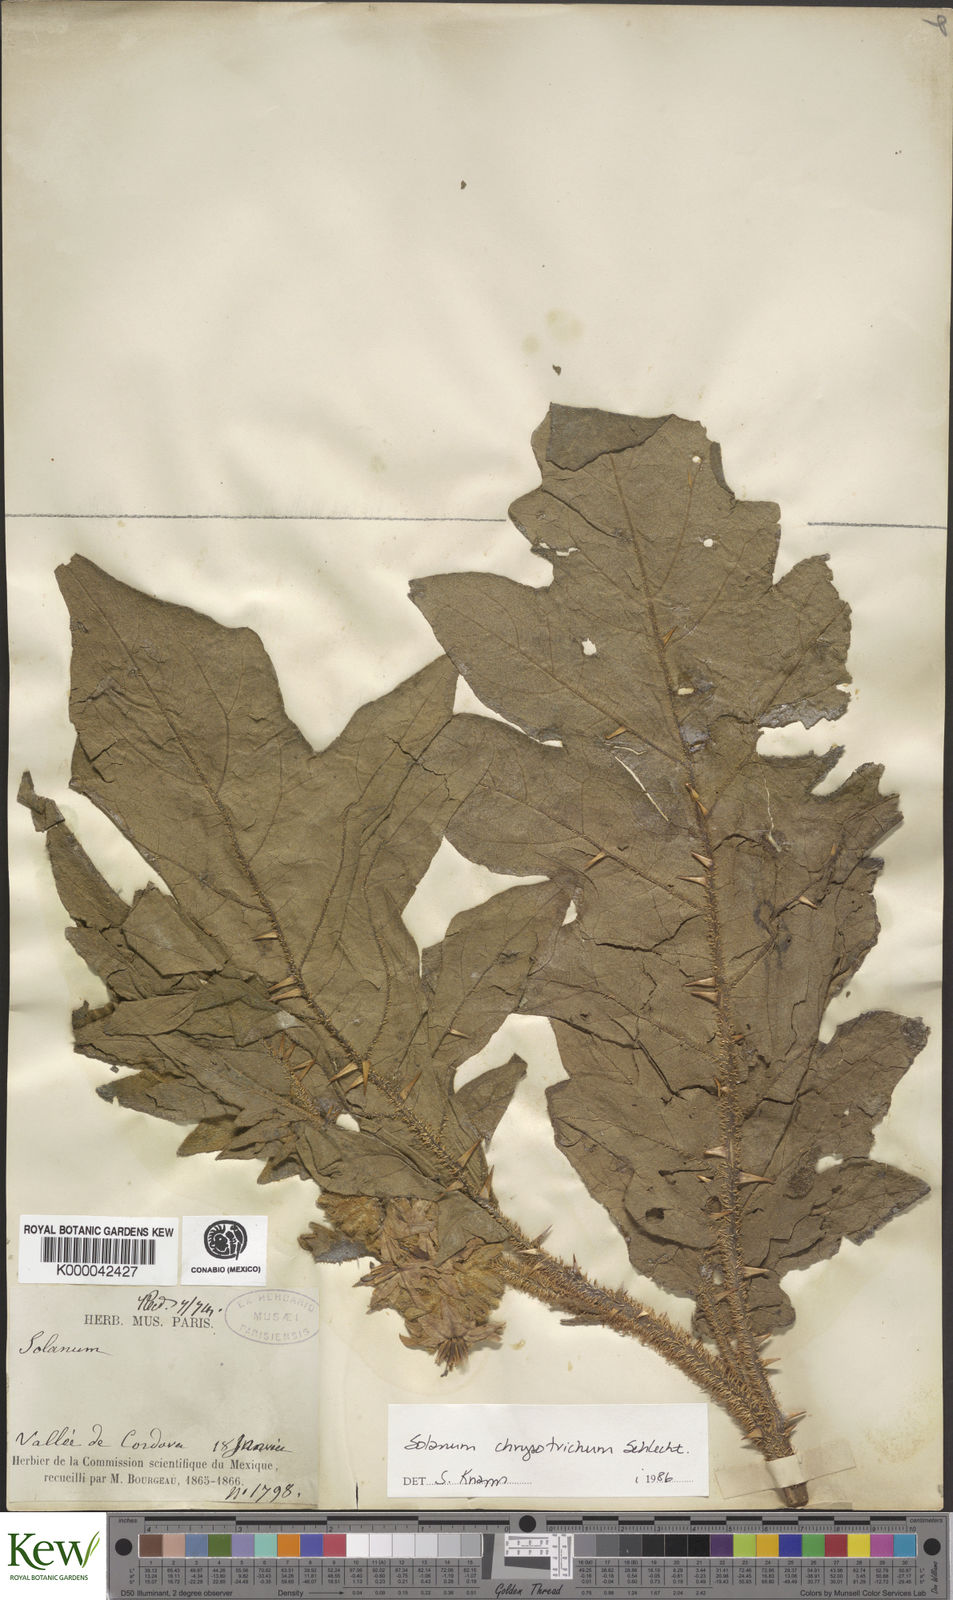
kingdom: Plantae
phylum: Tracheophyta
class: Magnoliopsida
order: Solanales
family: Solanaceae
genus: Solanum
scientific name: Solanum
